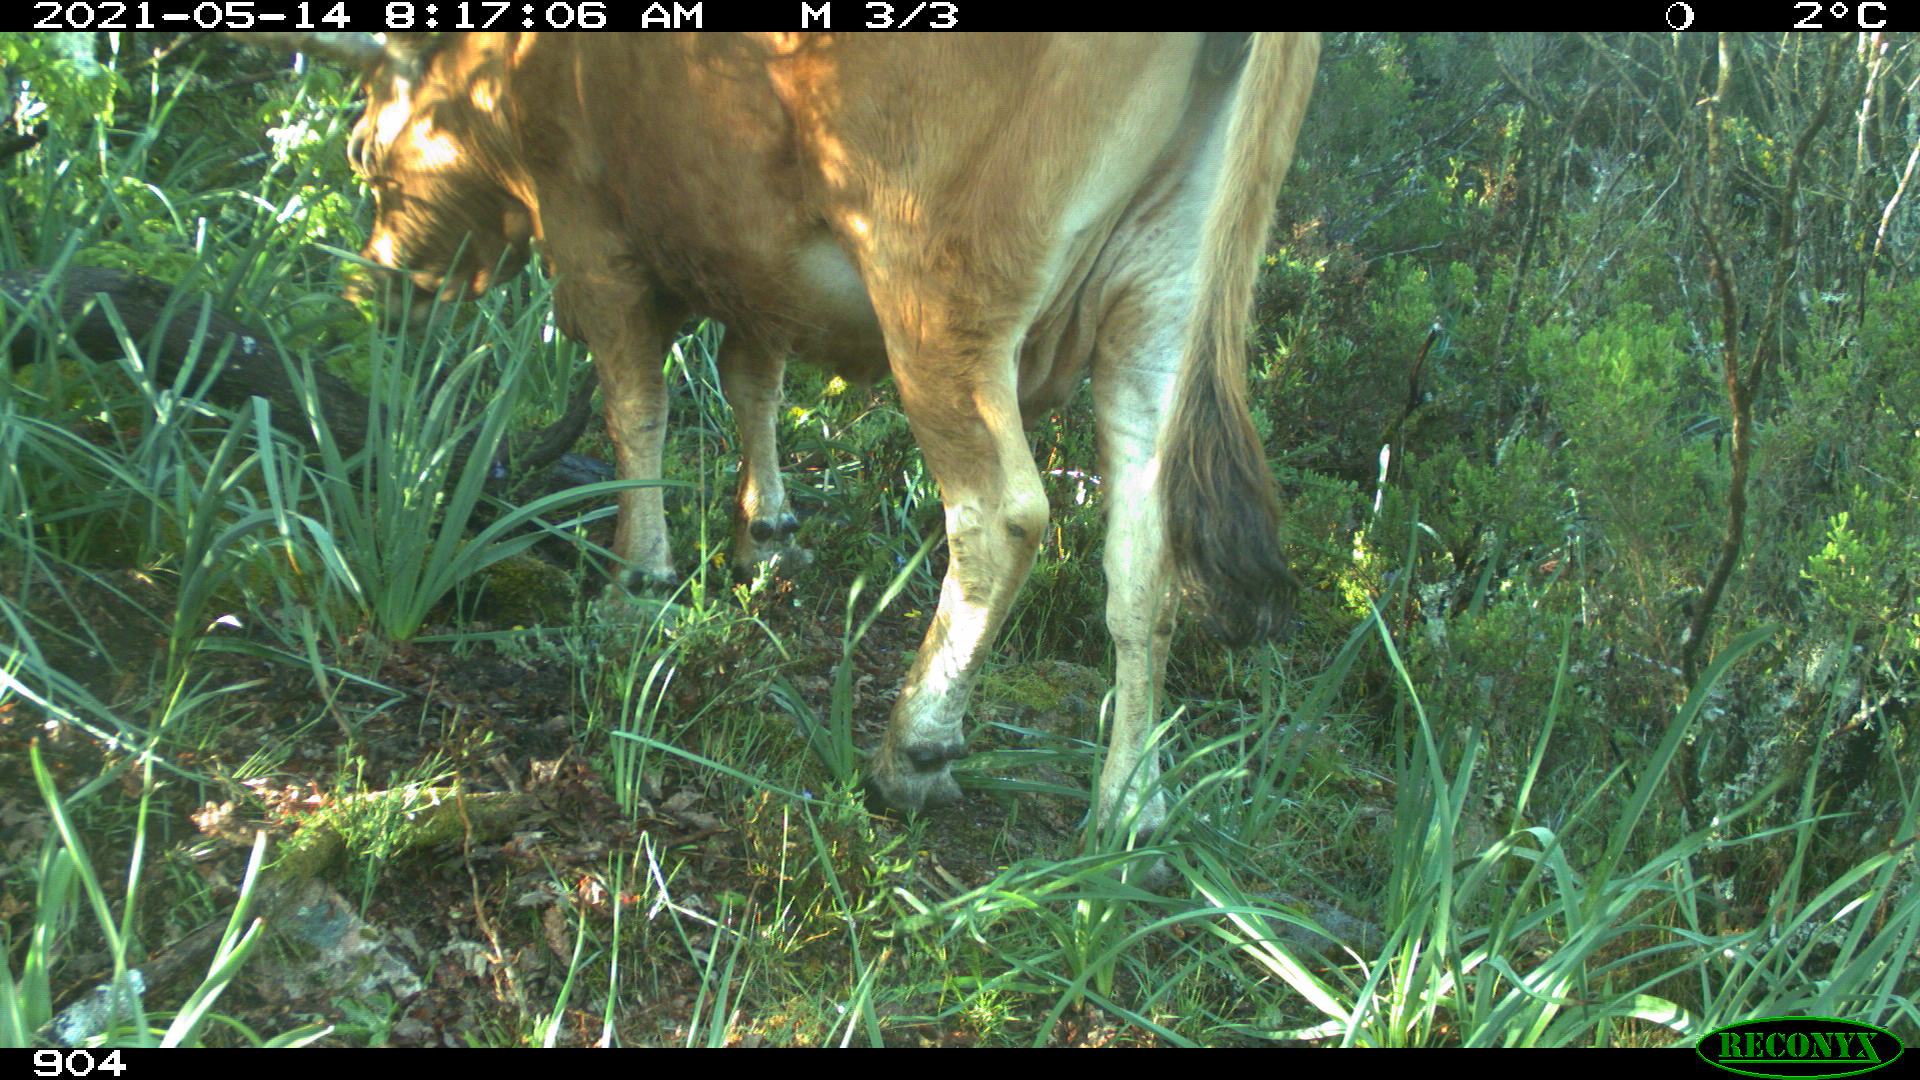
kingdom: Animalia
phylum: Chordata
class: Mammalia
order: Artiodactyla
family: Bovidae
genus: Bos
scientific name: Bos taurus
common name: Domesticated cattle
